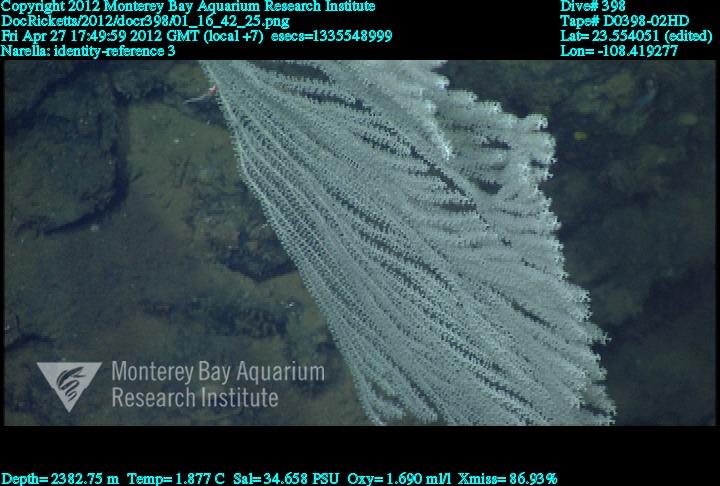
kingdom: Animalia
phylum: Cnidaria
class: Anthozoa
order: Scleralcyonacea
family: Primnoidae
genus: Narella
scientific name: Narella
